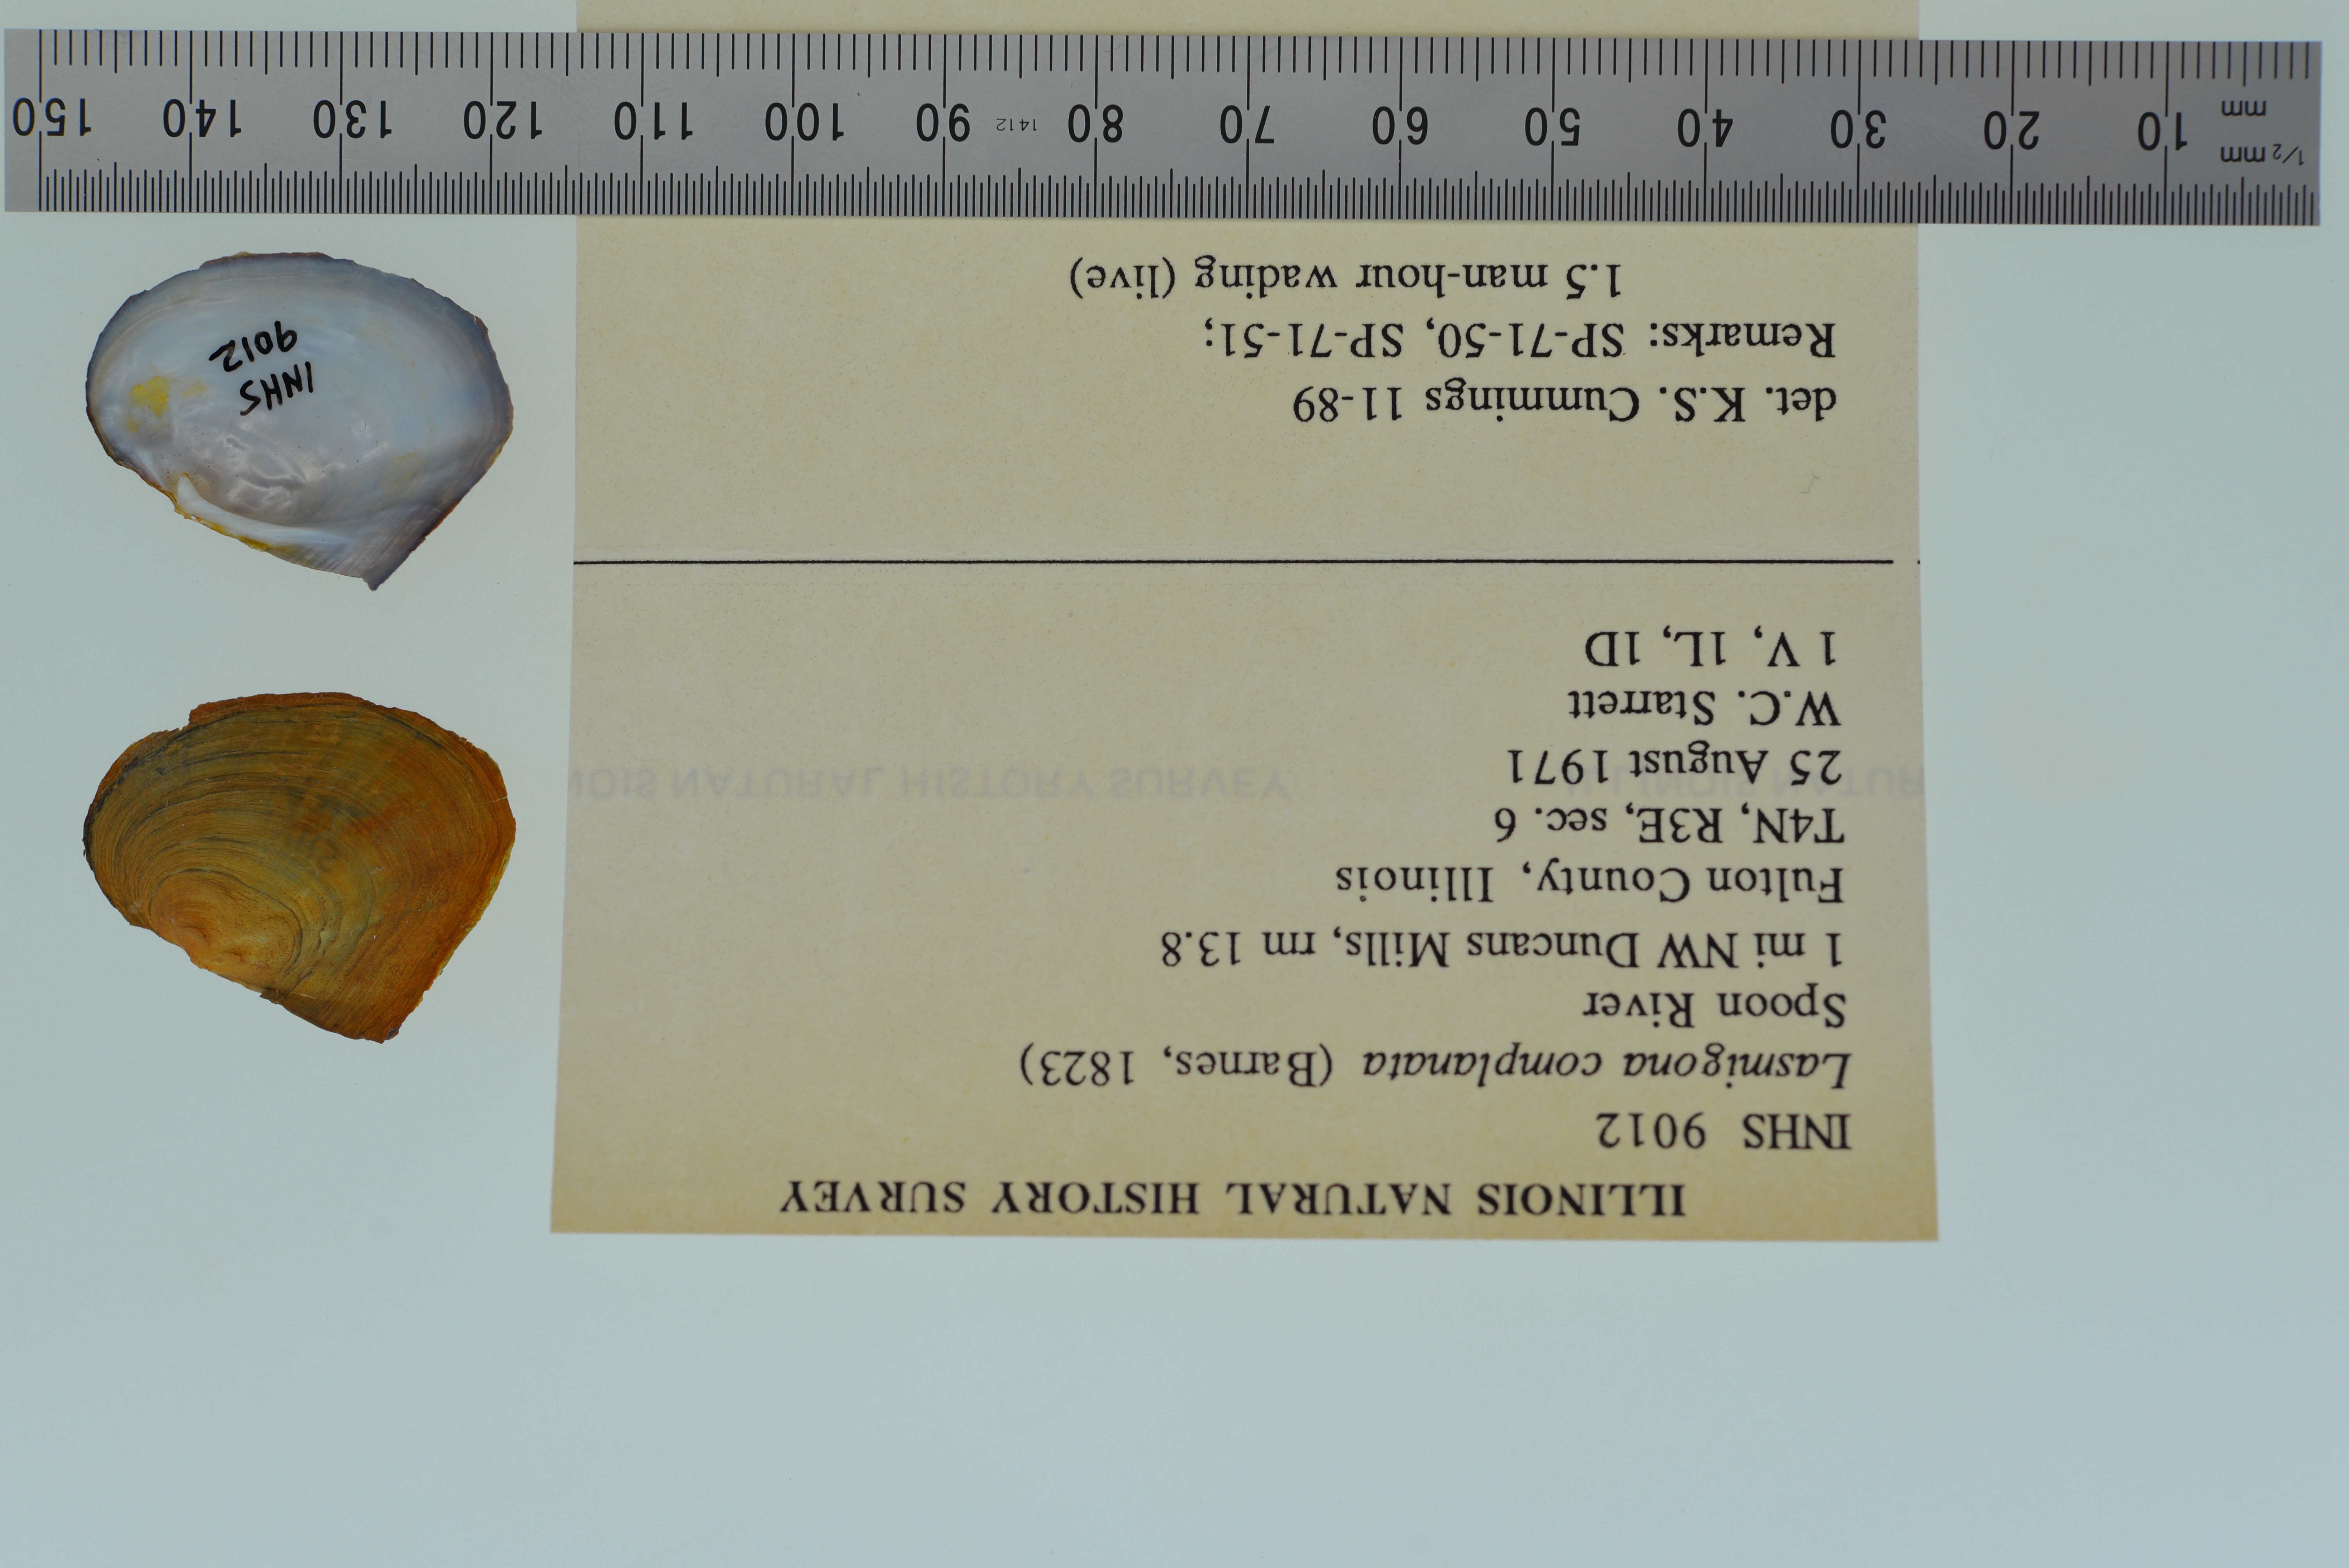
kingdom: Animalia
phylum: Mollusca
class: Bivalvia
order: Unionida
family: Unionidae
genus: Lasmigona
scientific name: Lasmigona complanata
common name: White heelsplitter
